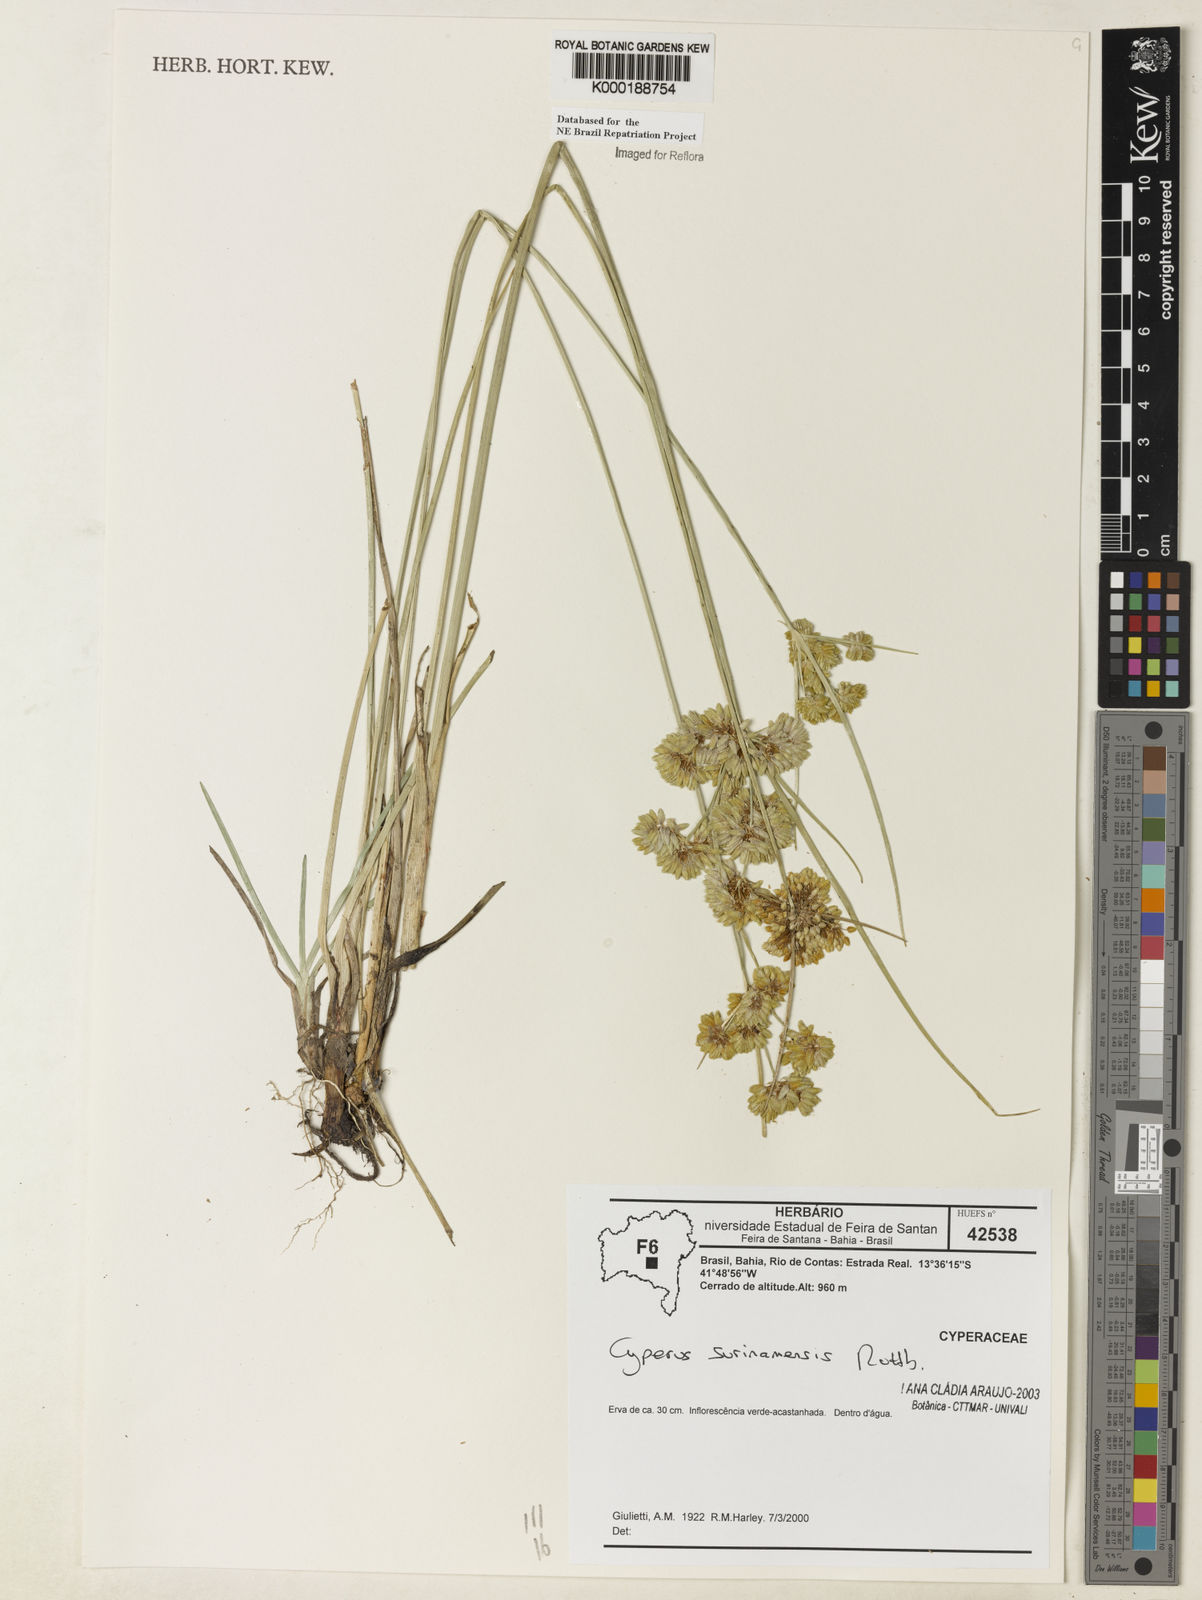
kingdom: Plantae
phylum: Tracheophyta
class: Liliopsida
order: Poales
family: Cyperaceae
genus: Cyperus
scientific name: Cyperus surinamensis
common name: Tropical flat sedge
